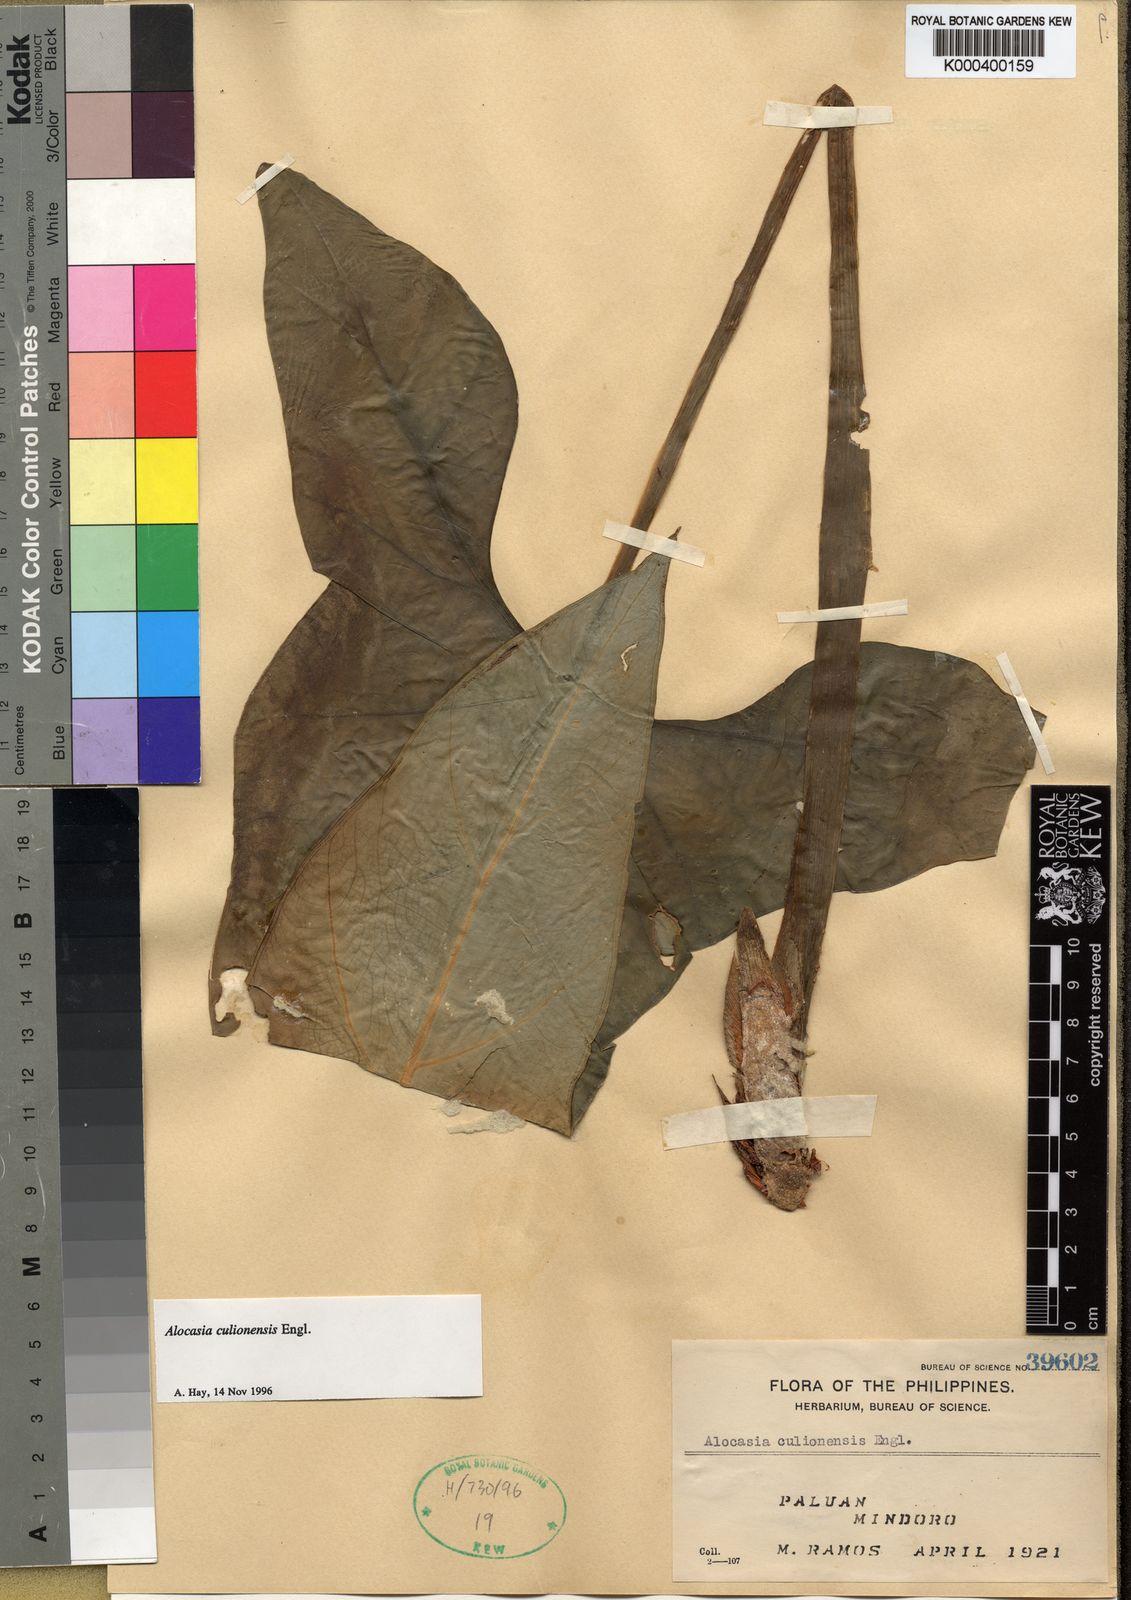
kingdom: Plantae
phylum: Tracheophyta
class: Liliopsida
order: Alismatales
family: Araceae
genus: Alocasia
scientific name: Alocasia culionensis
